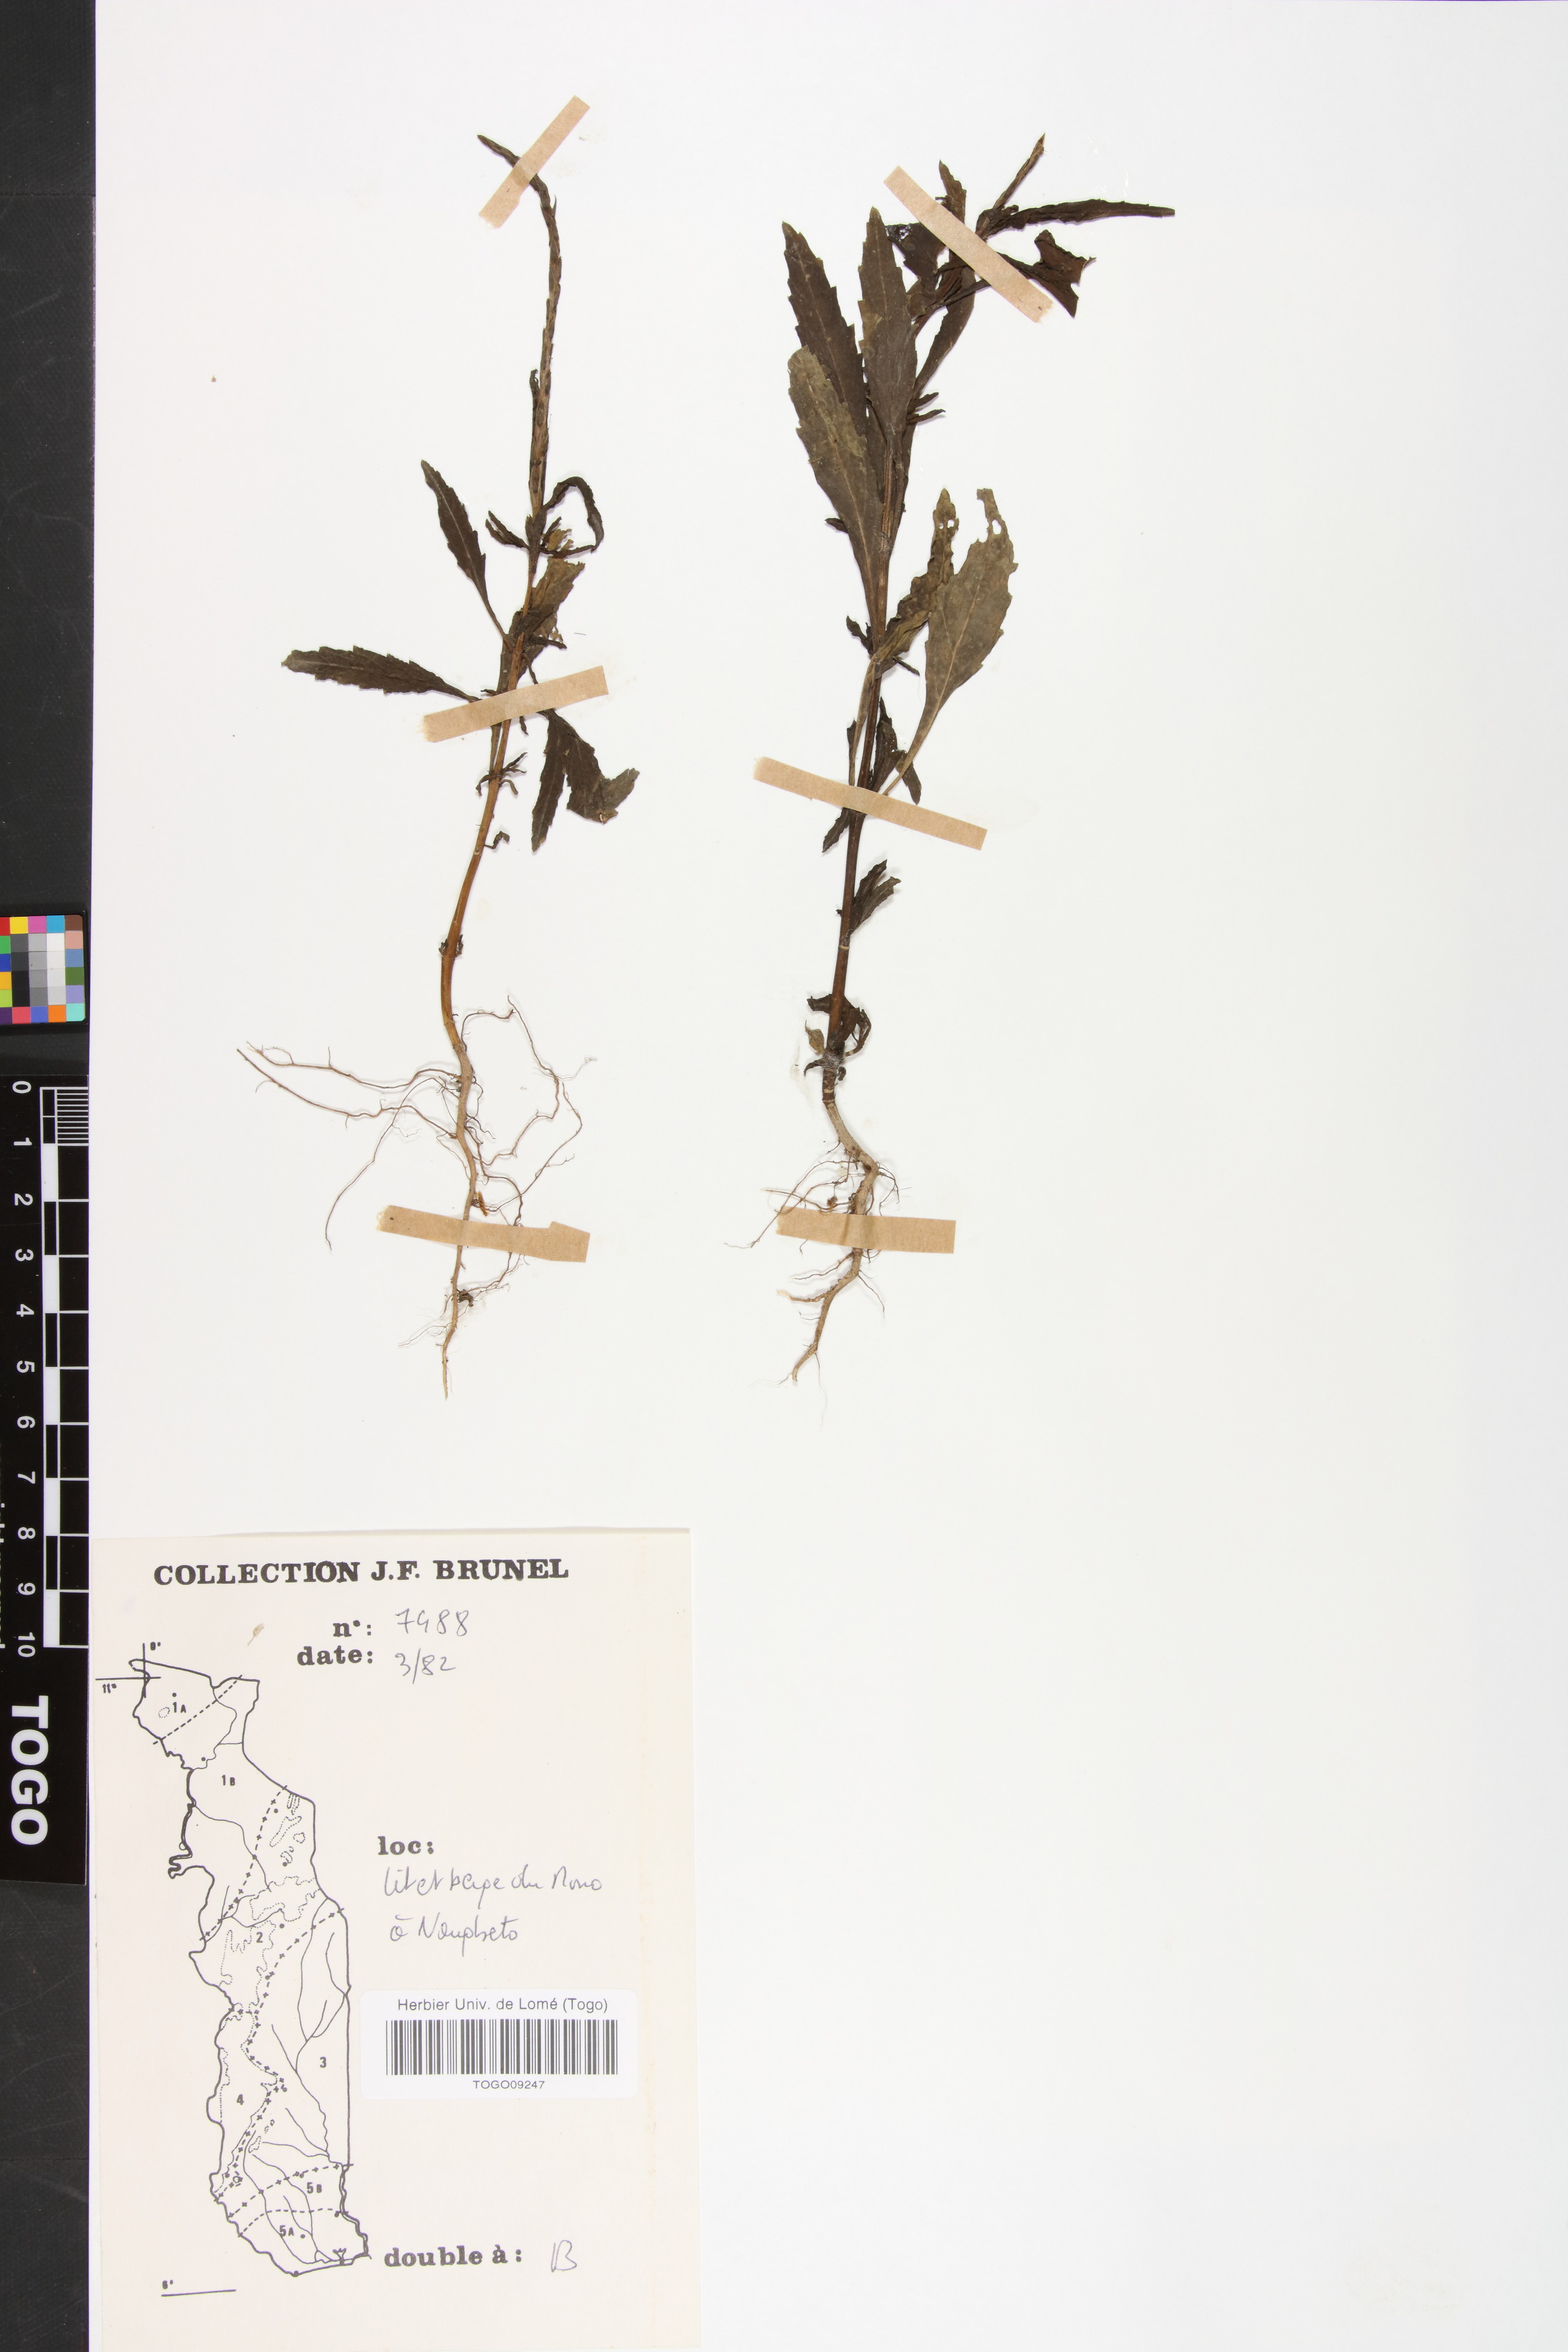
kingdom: Plantae
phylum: Tracheophyta
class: Magnoliopsida
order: Lamiales
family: Verbenaceae
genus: Stachytarpheta
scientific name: Stachytarpheta indica
